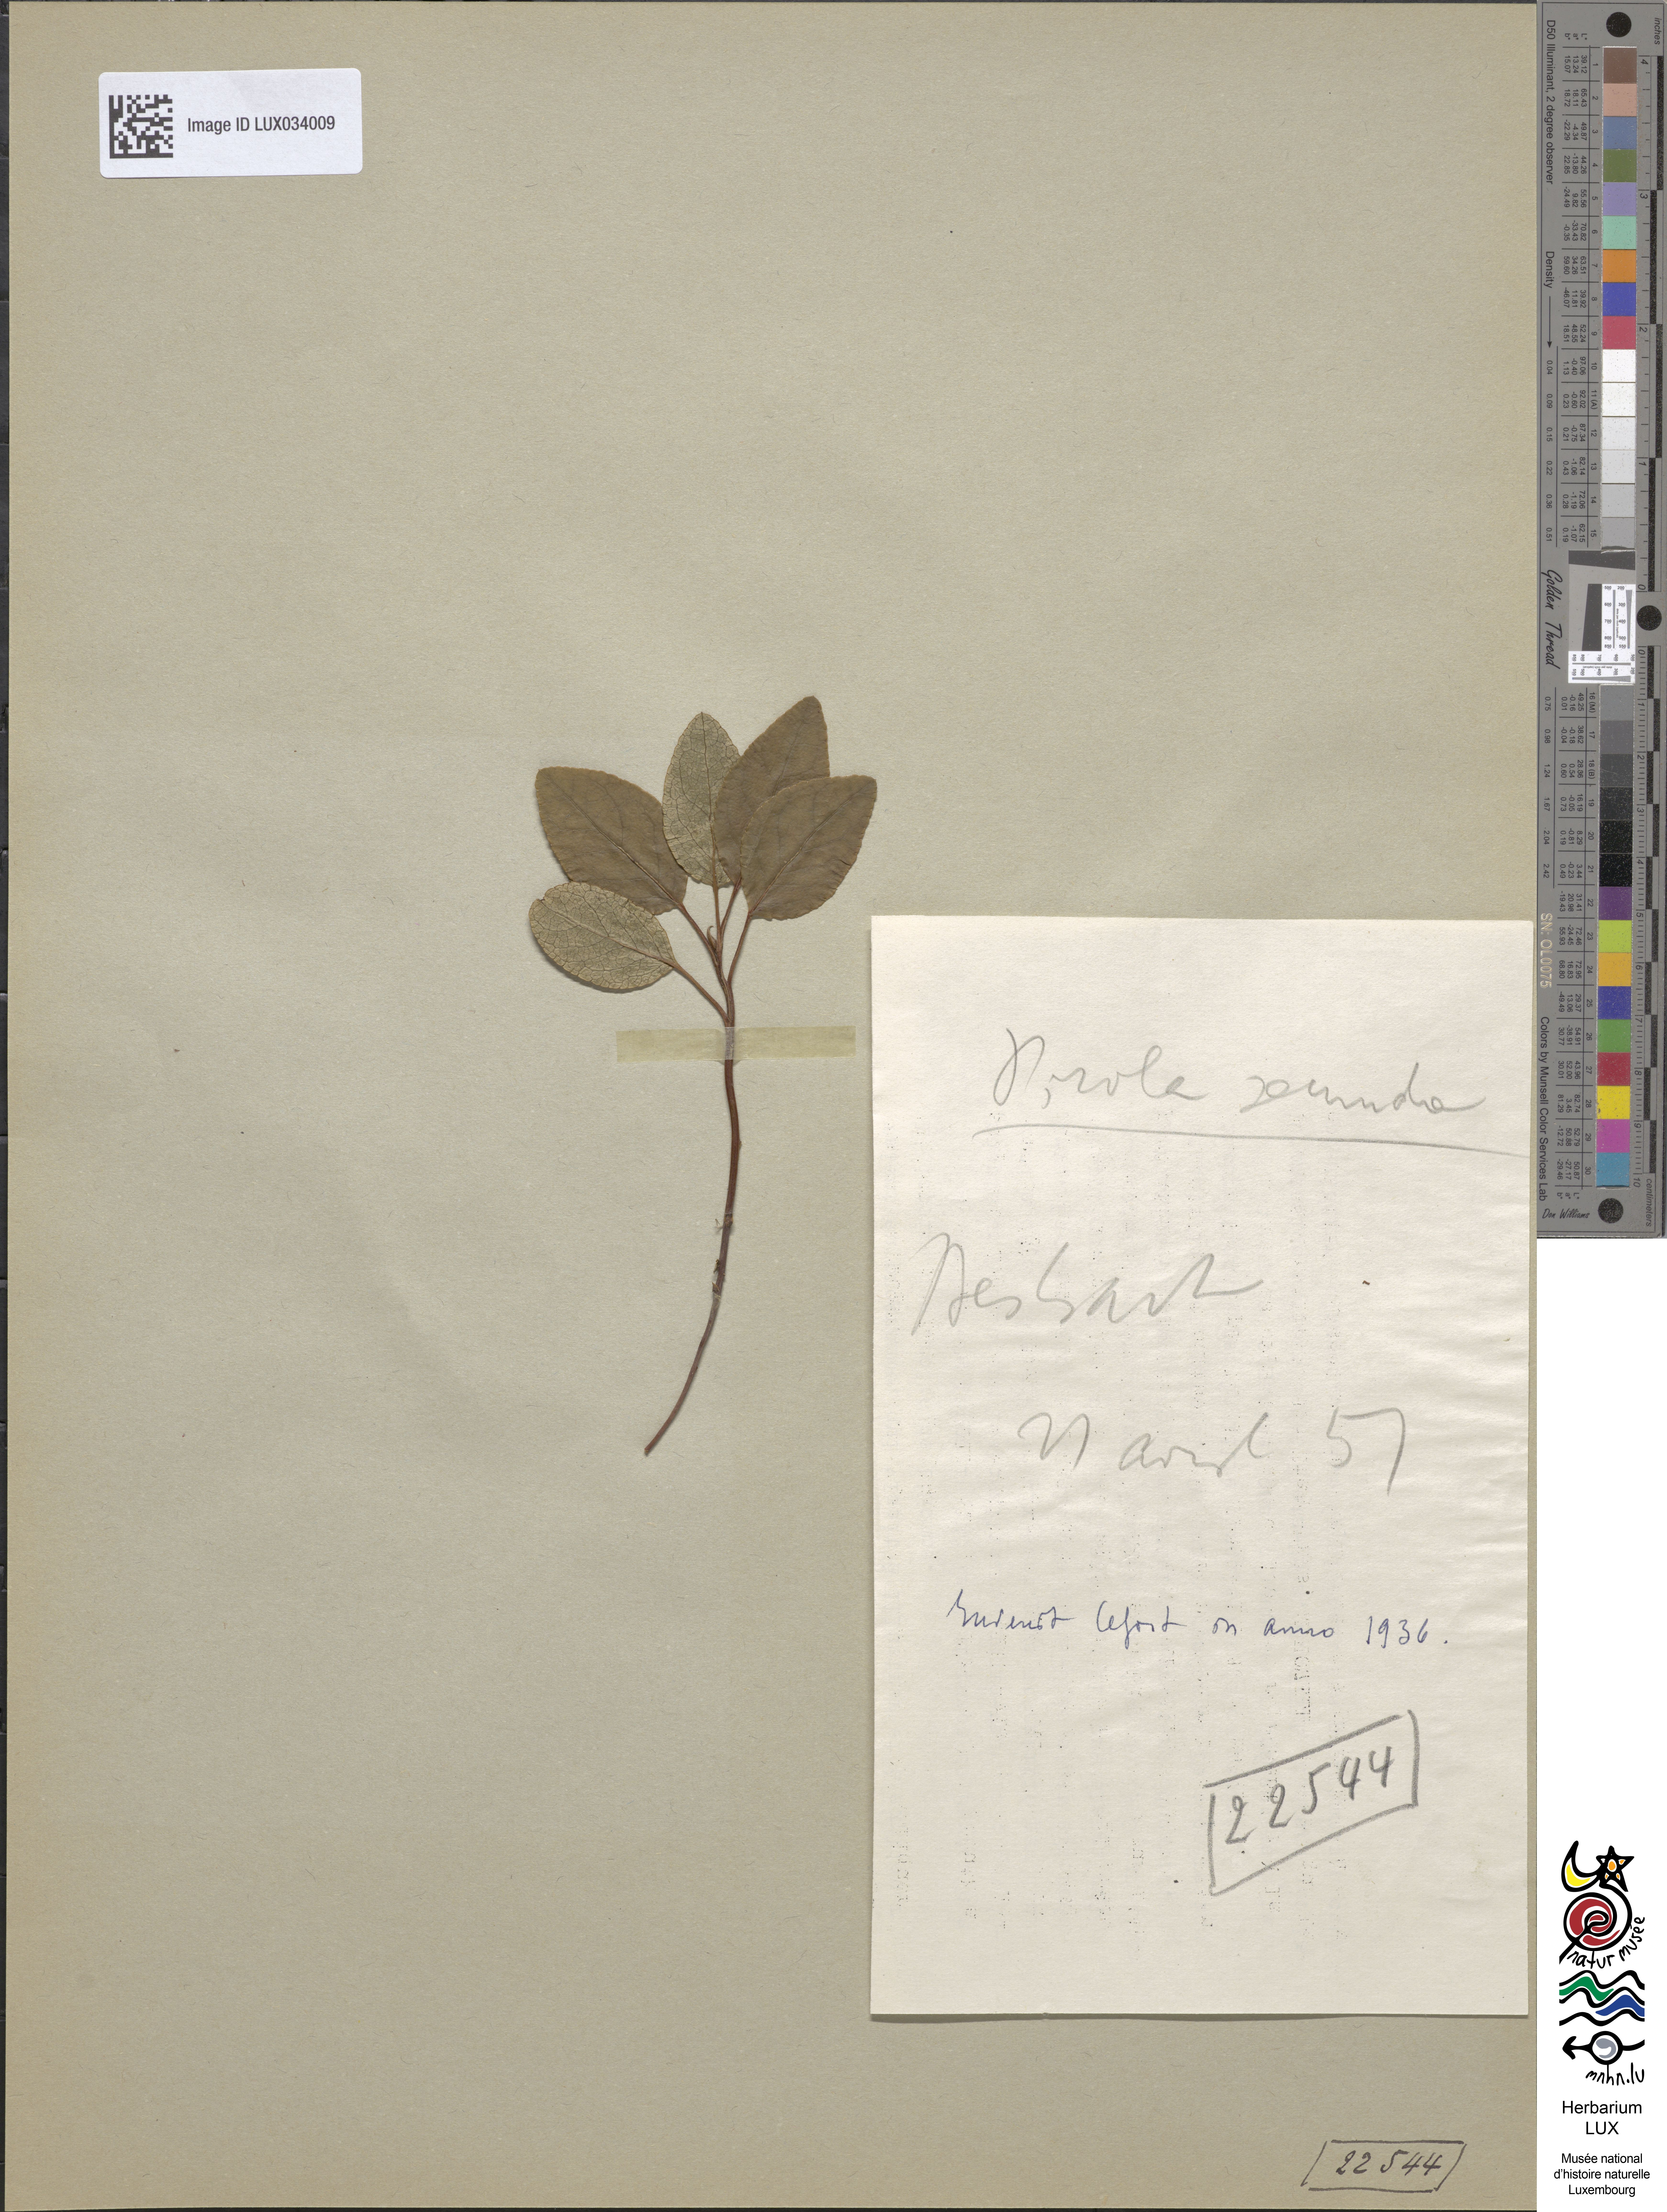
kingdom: Plantae
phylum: Tracheophyta
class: Magnoliopsida
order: Ericales
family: Ericaceae
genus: Orthilia
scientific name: Orthilia secunda
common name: One-sided orthilia
